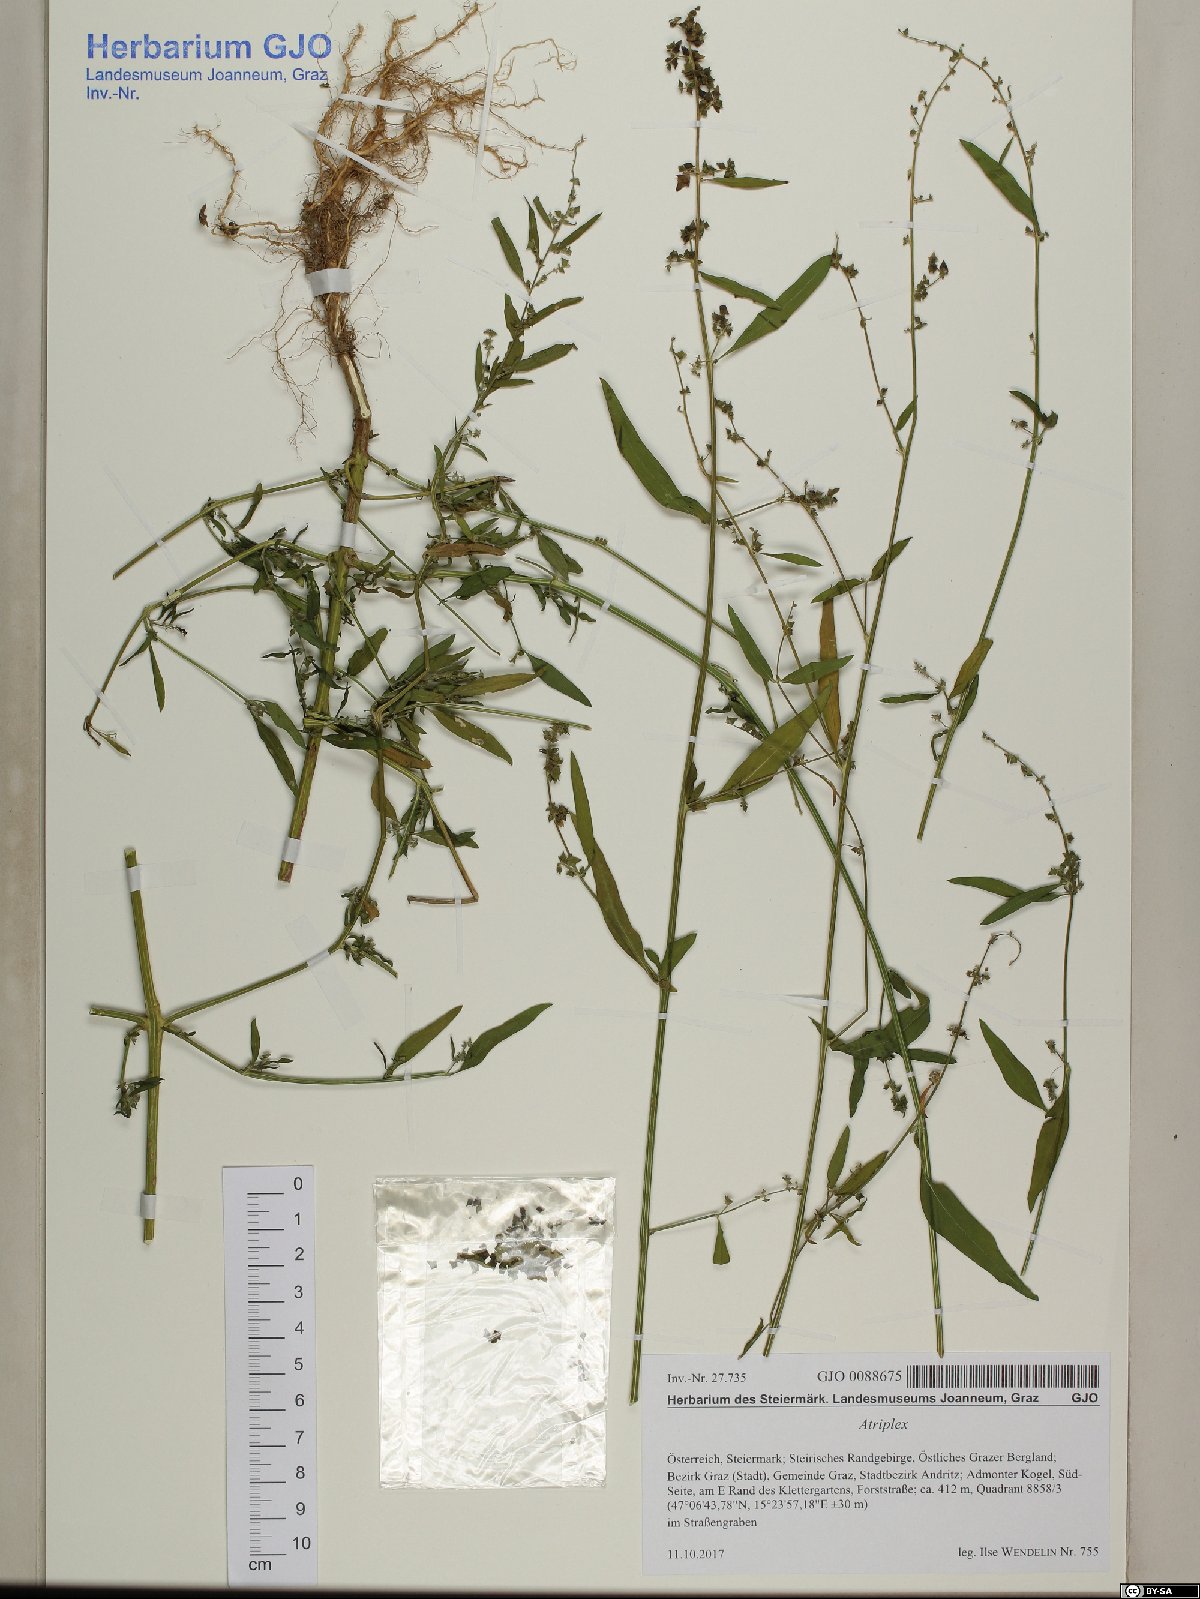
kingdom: Plantae
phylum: Tracheophyta
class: Magnoliopsida
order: Caryophyllales
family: Amaranthaceae
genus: Atriplex
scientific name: Atriplex
